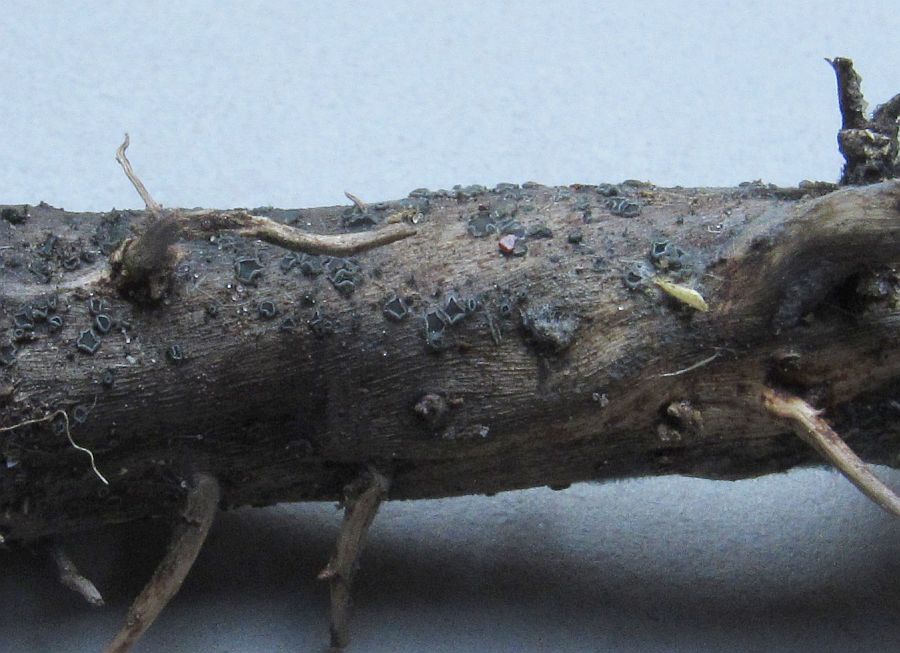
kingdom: Fungi
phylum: Ascomycota
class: Leotiomycetes
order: Helotiales
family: Ploettnerulaceae
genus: Pyrenopeziza
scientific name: Pyrenopeziza
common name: kerneskive
